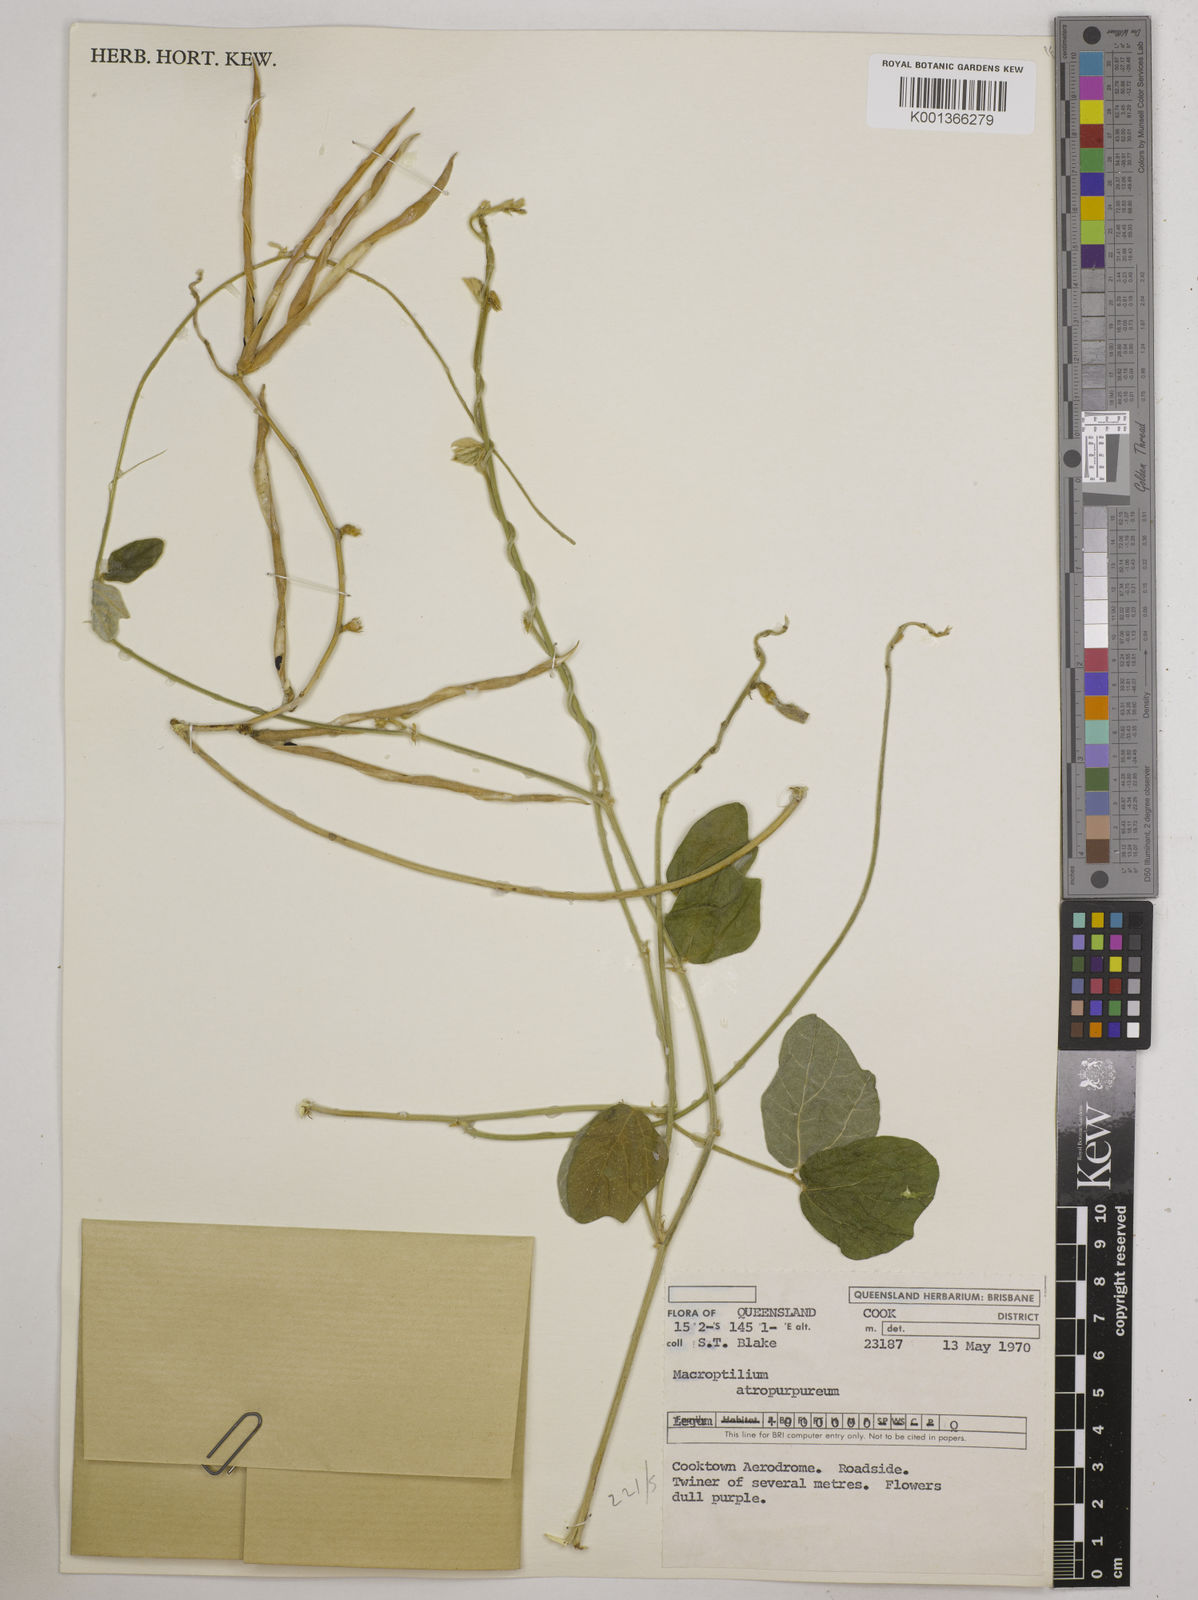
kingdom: Plantae
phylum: Tracheophyta
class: Magnoliopsida
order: Fabales
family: Fabaceae
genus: Macroptilium
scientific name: Macroptilium atropurpureum
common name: Purple bushbean
